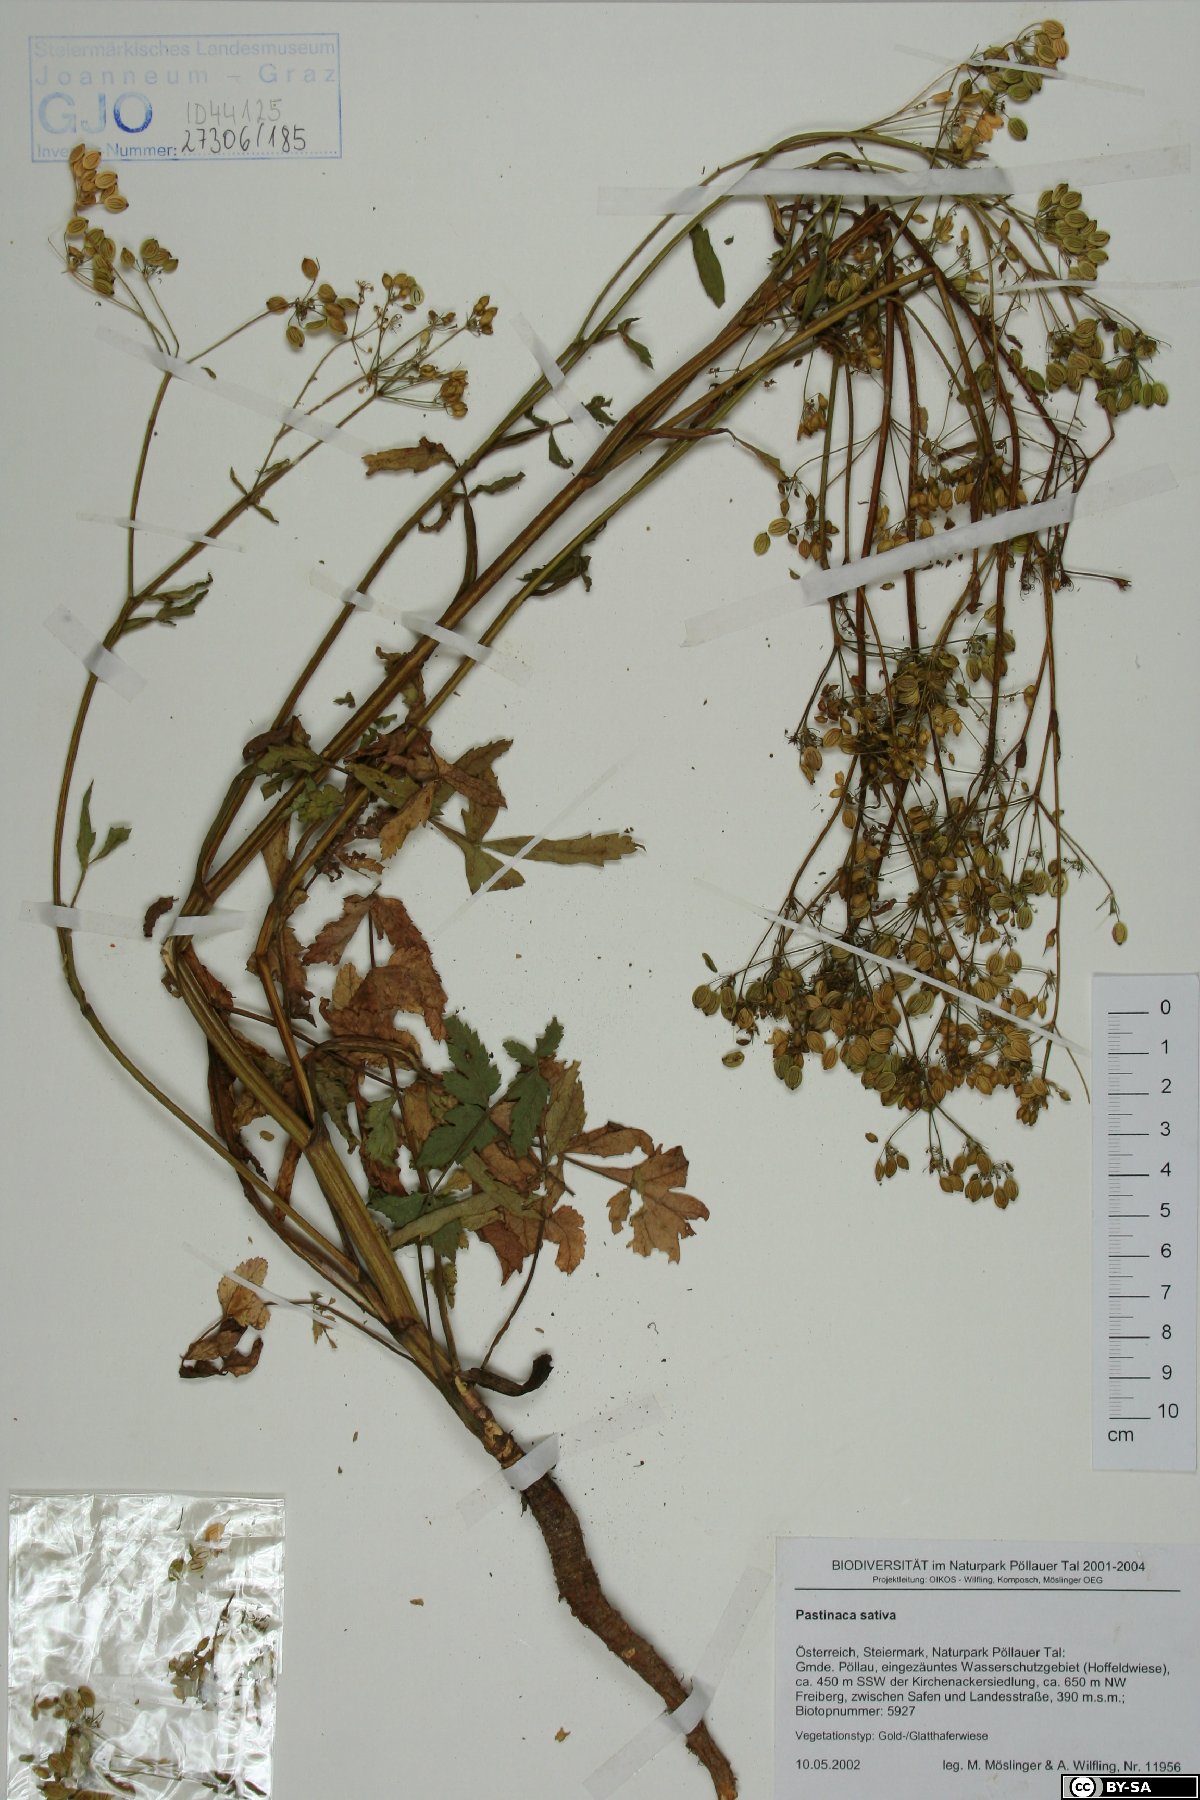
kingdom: Plantae
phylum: Tracheophyta
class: Magnoliopsida
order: Apiales
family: Apiaceae
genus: Pastinaca
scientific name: Pastinaca sativa
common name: Wild parsnip
